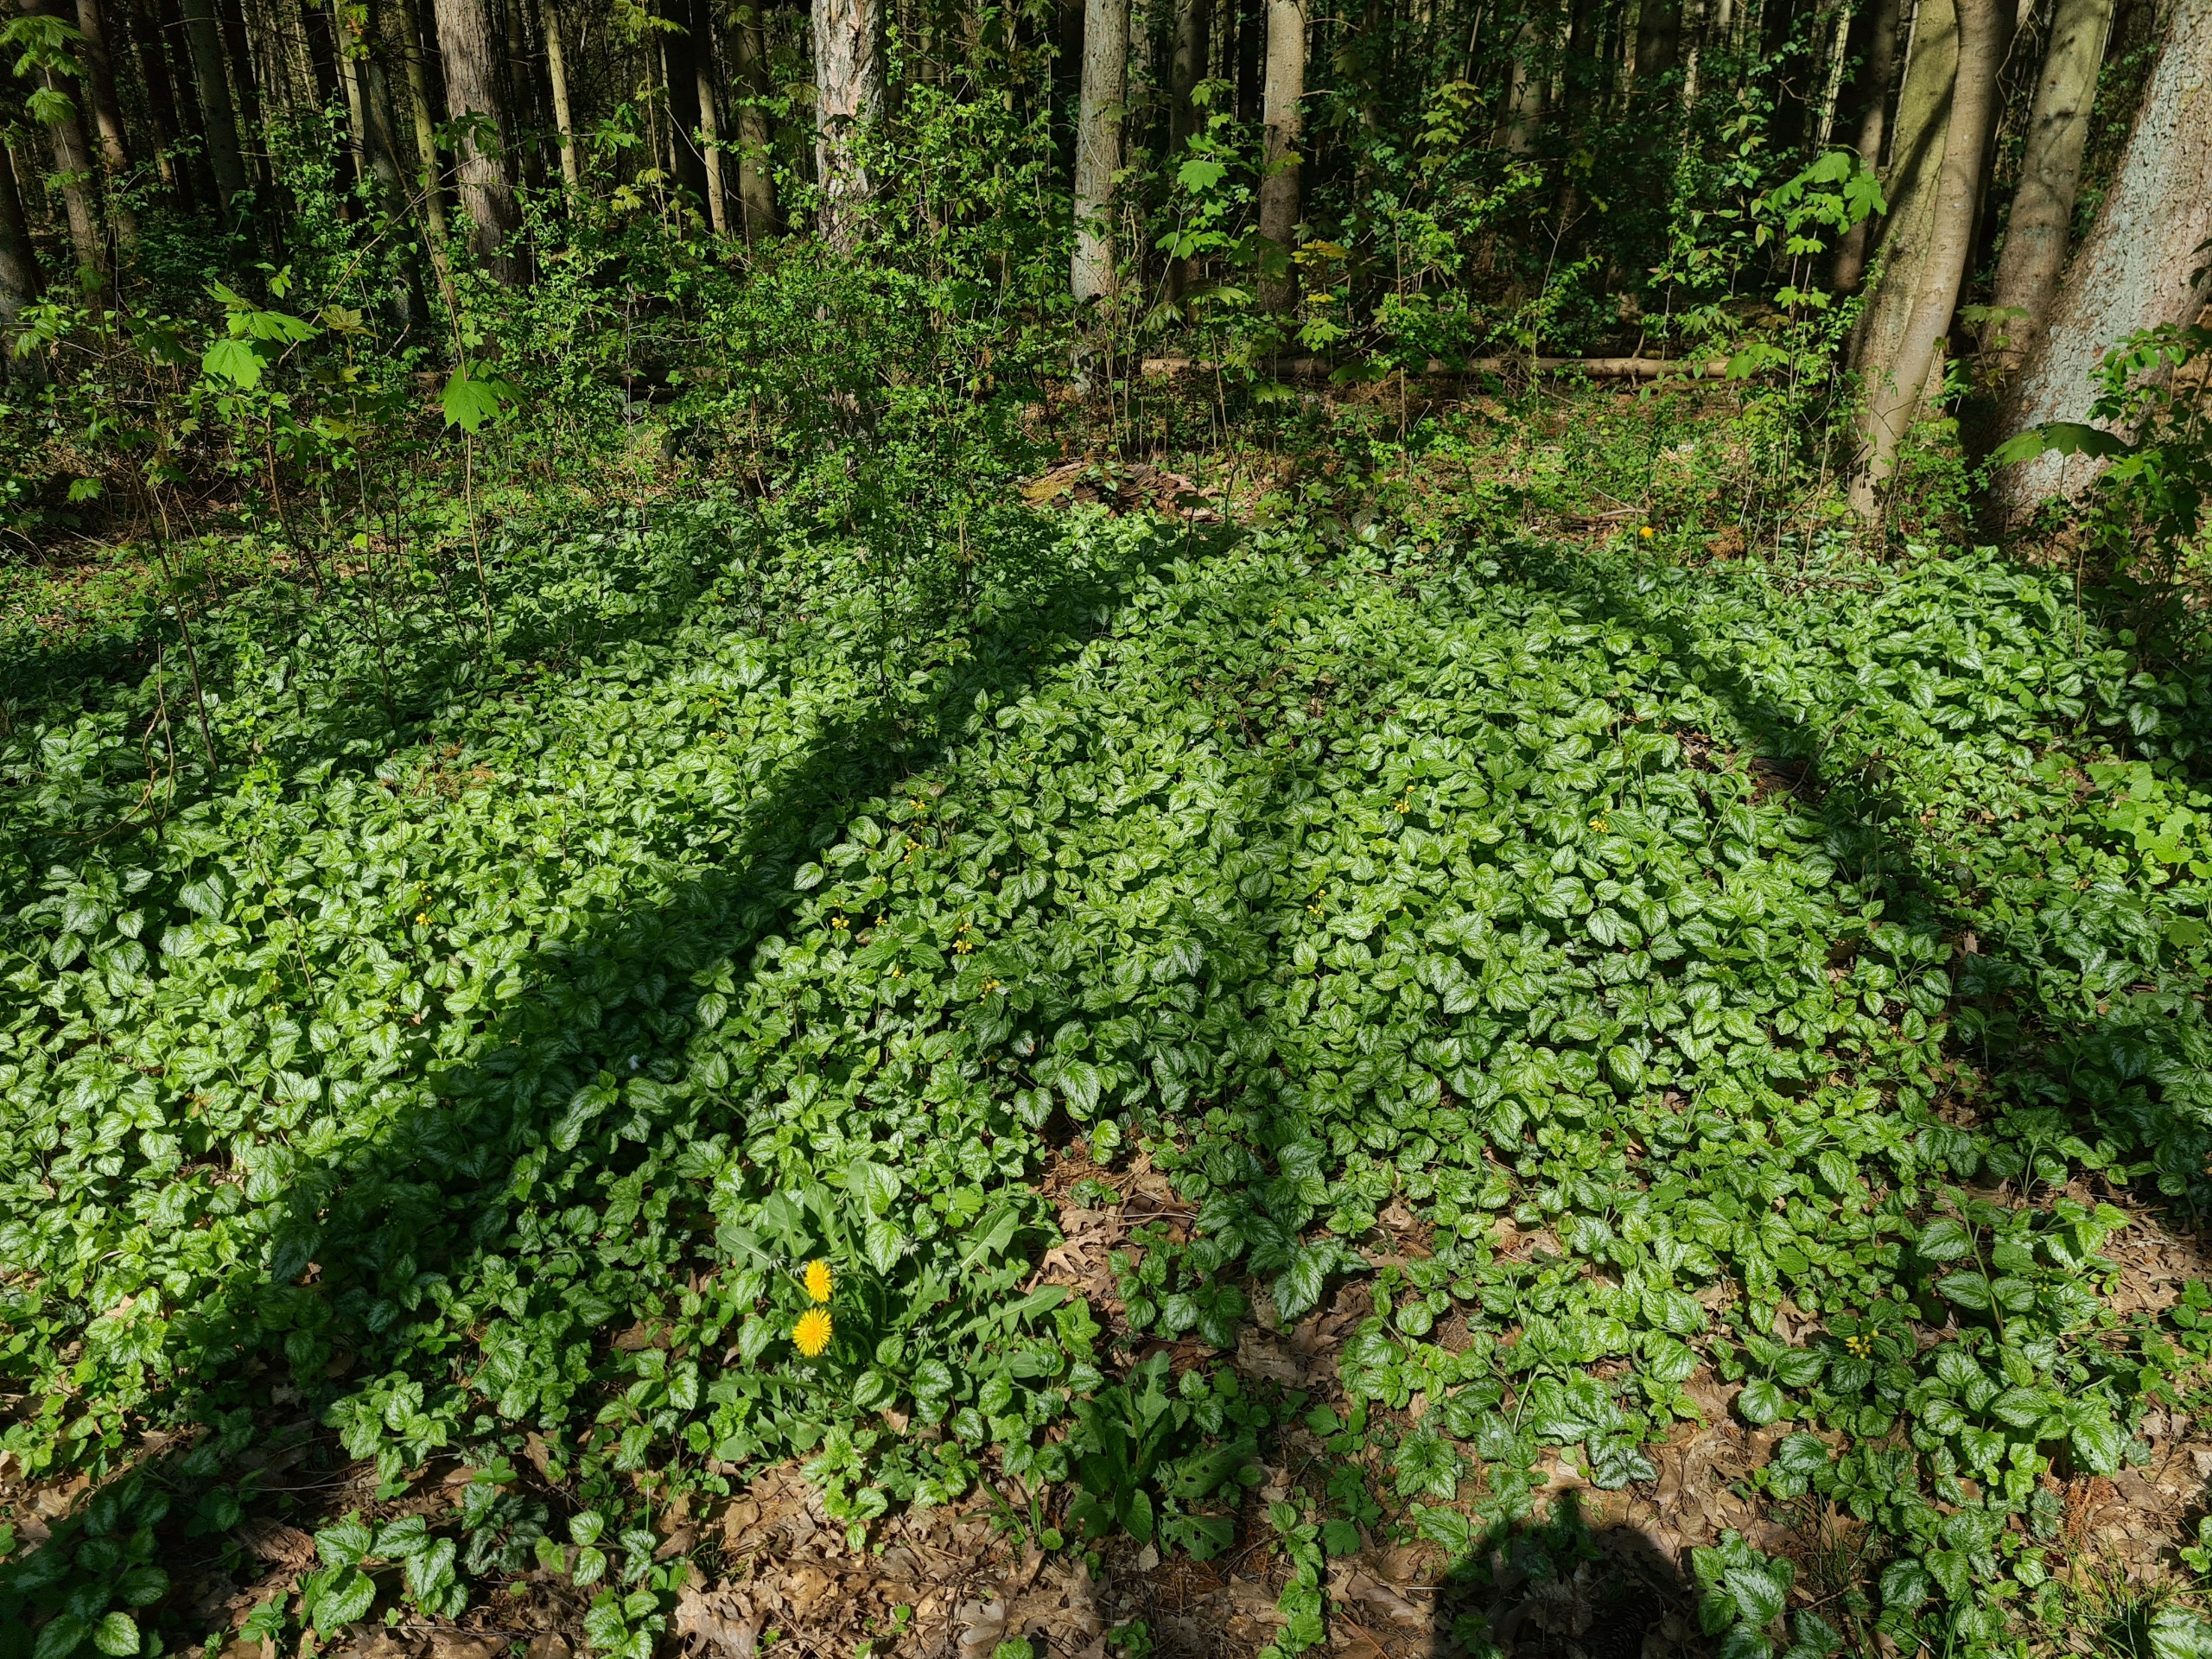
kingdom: Plantae
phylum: Tracheophyta
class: Magnoliopsida
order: Lamiales
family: Lamiaceae
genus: Lamium
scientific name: Lamium galeobdolon
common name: Have-guldnælde
